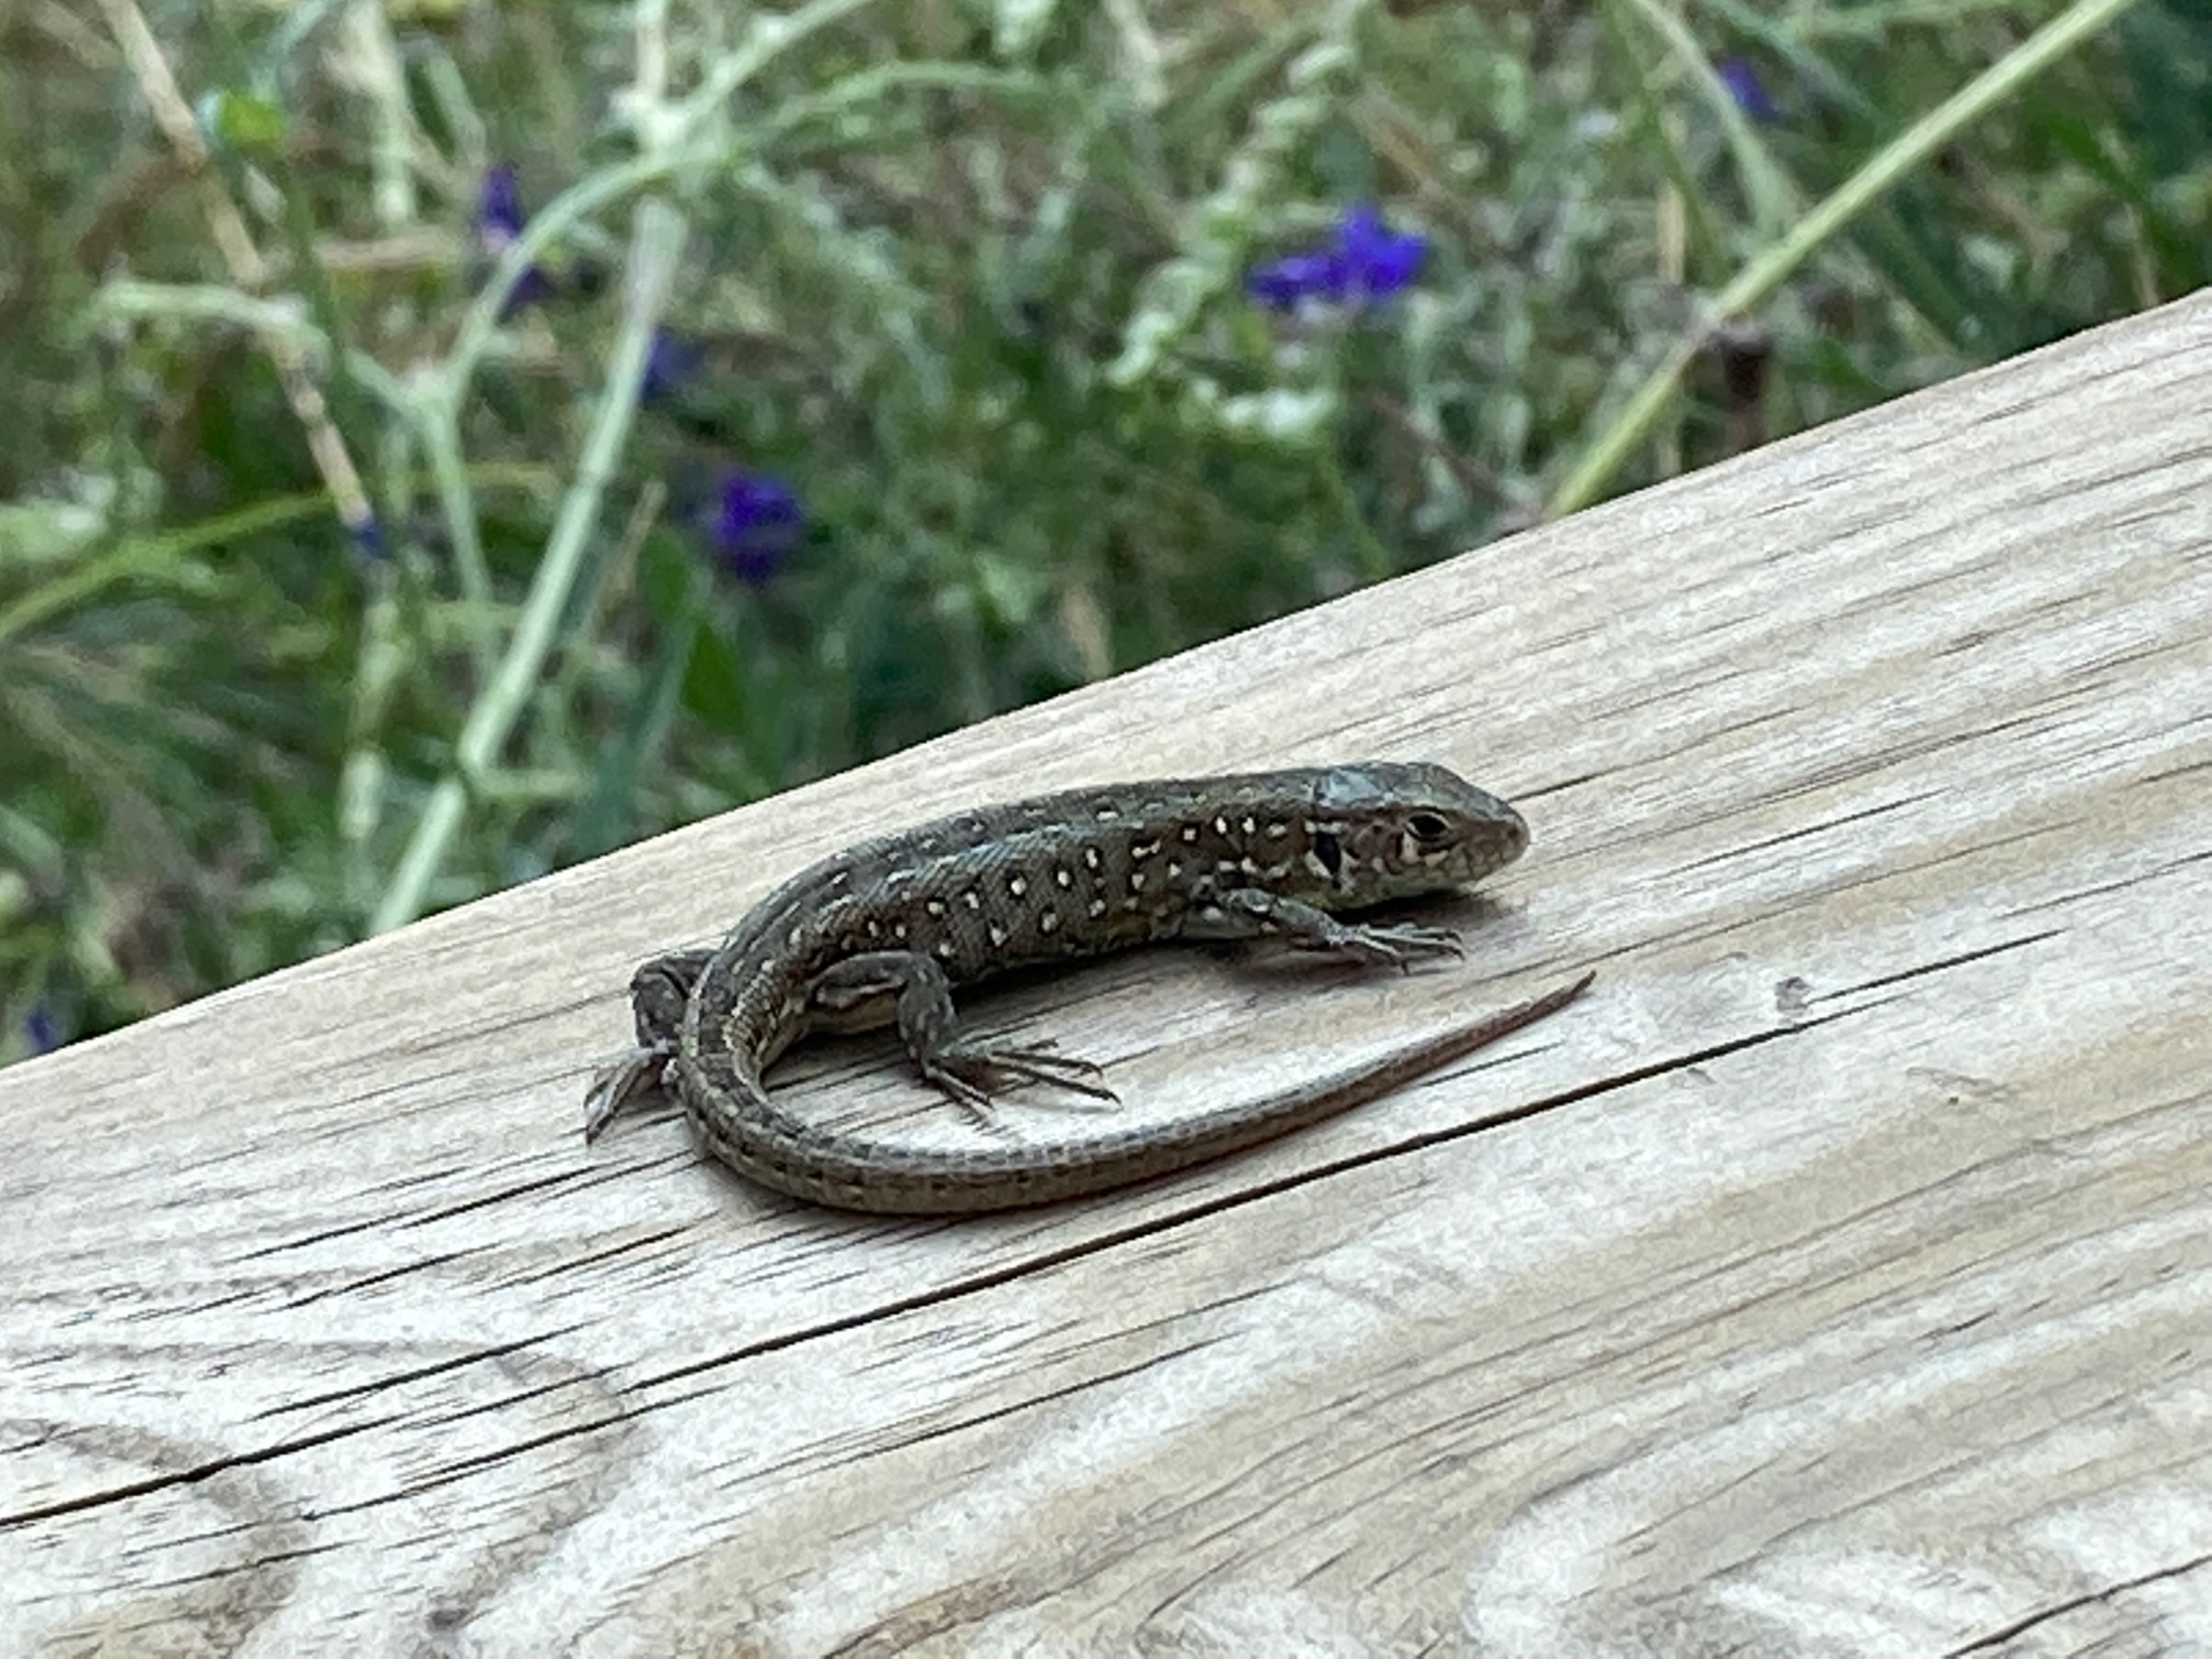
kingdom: Animalia
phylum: Chordata
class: Squamata
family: Lacertidae
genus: Lacerta
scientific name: Lacerta agilis
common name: Markfirben
